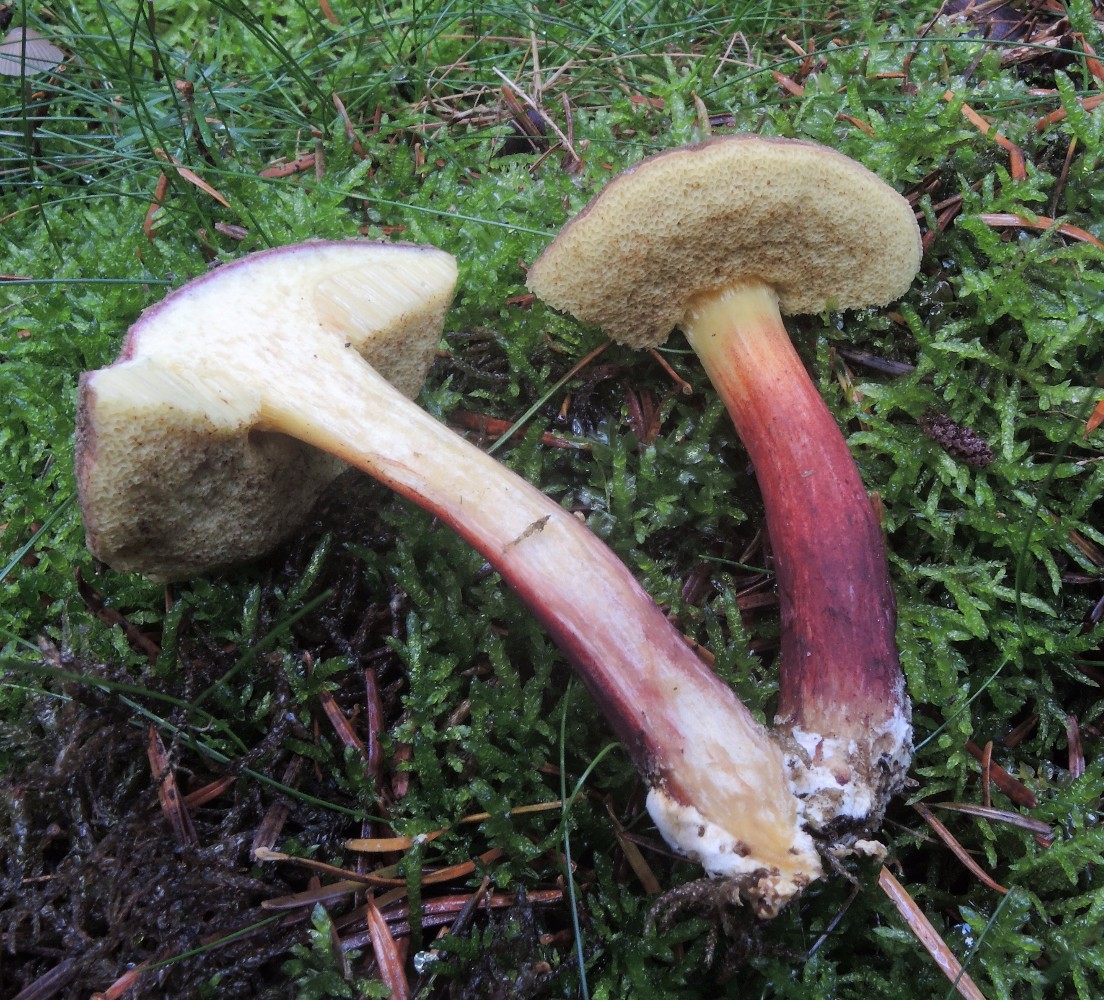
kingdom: Fungi
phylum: Basidiomycota
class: Agaricomycetes
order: Boletales
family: Boletaceae
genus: Xerocomellus
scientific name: Xerocomellus chrysenteron
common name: rødsprukken rørhat
